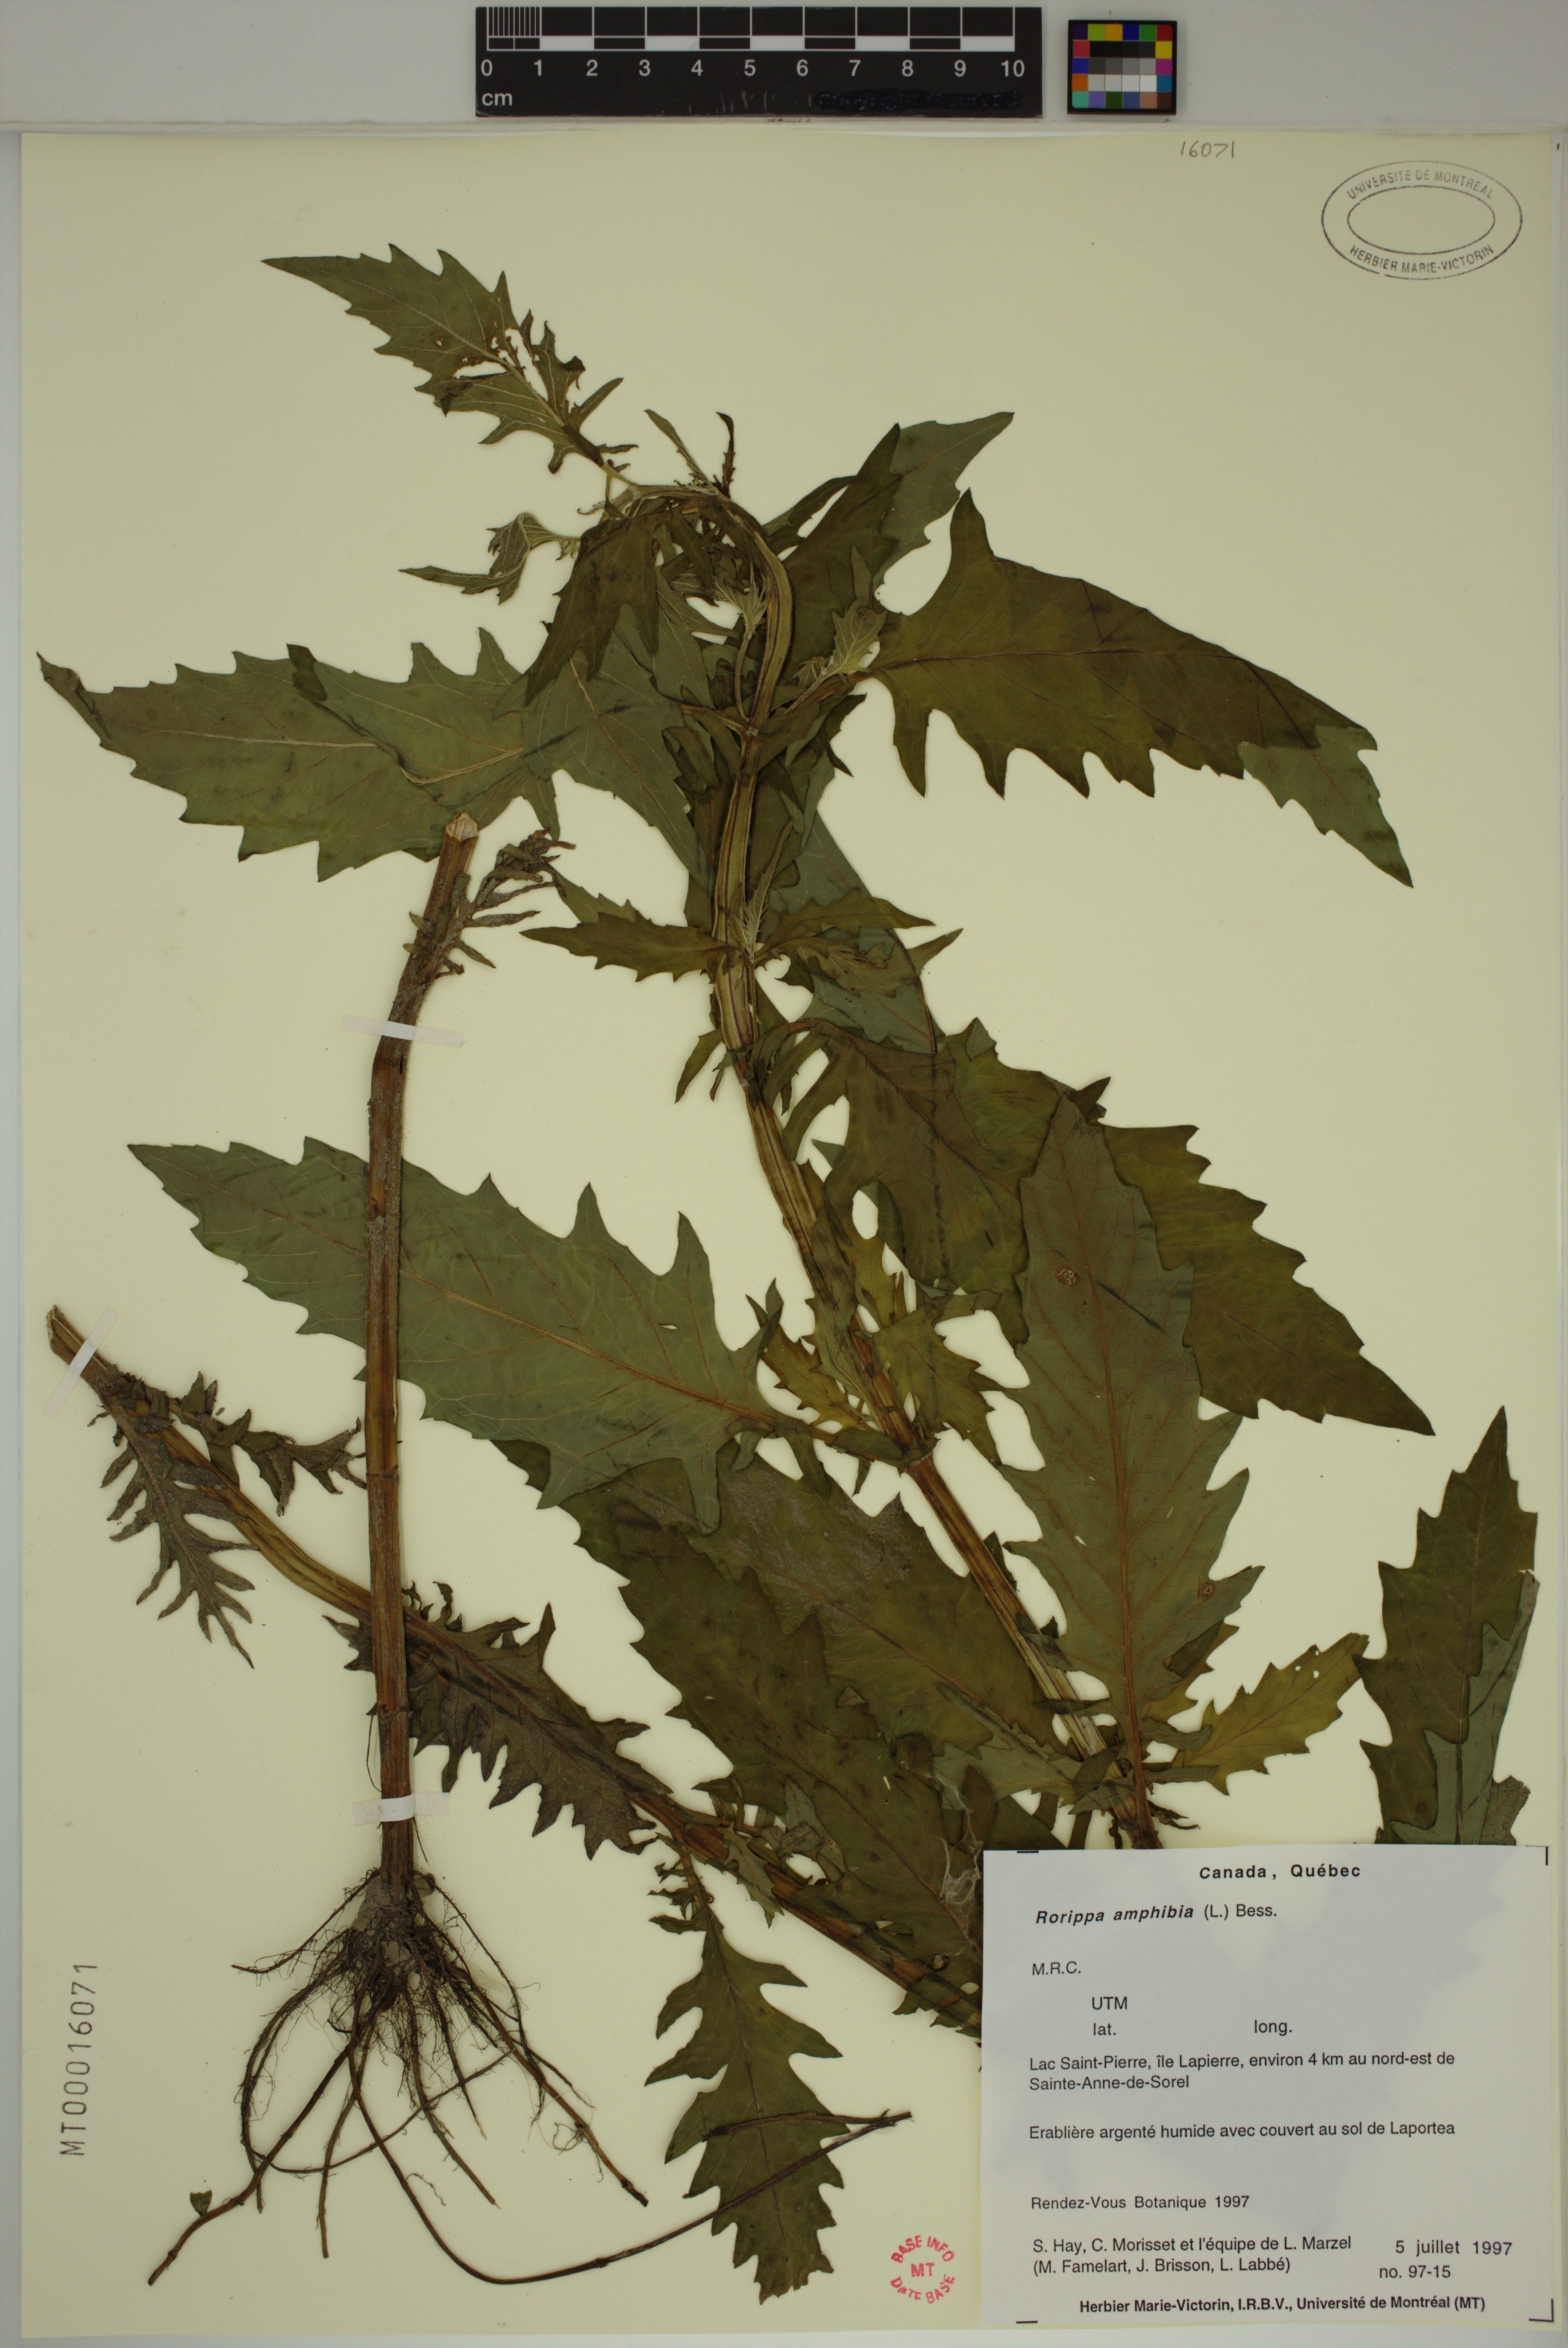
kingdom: Plantae
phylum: Tracheophyta
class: Magnoliopsida
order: Brassicales
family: Brassicaceae
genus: Rorippa
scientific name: Rorippa amphibia
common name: Great yellow-cress
